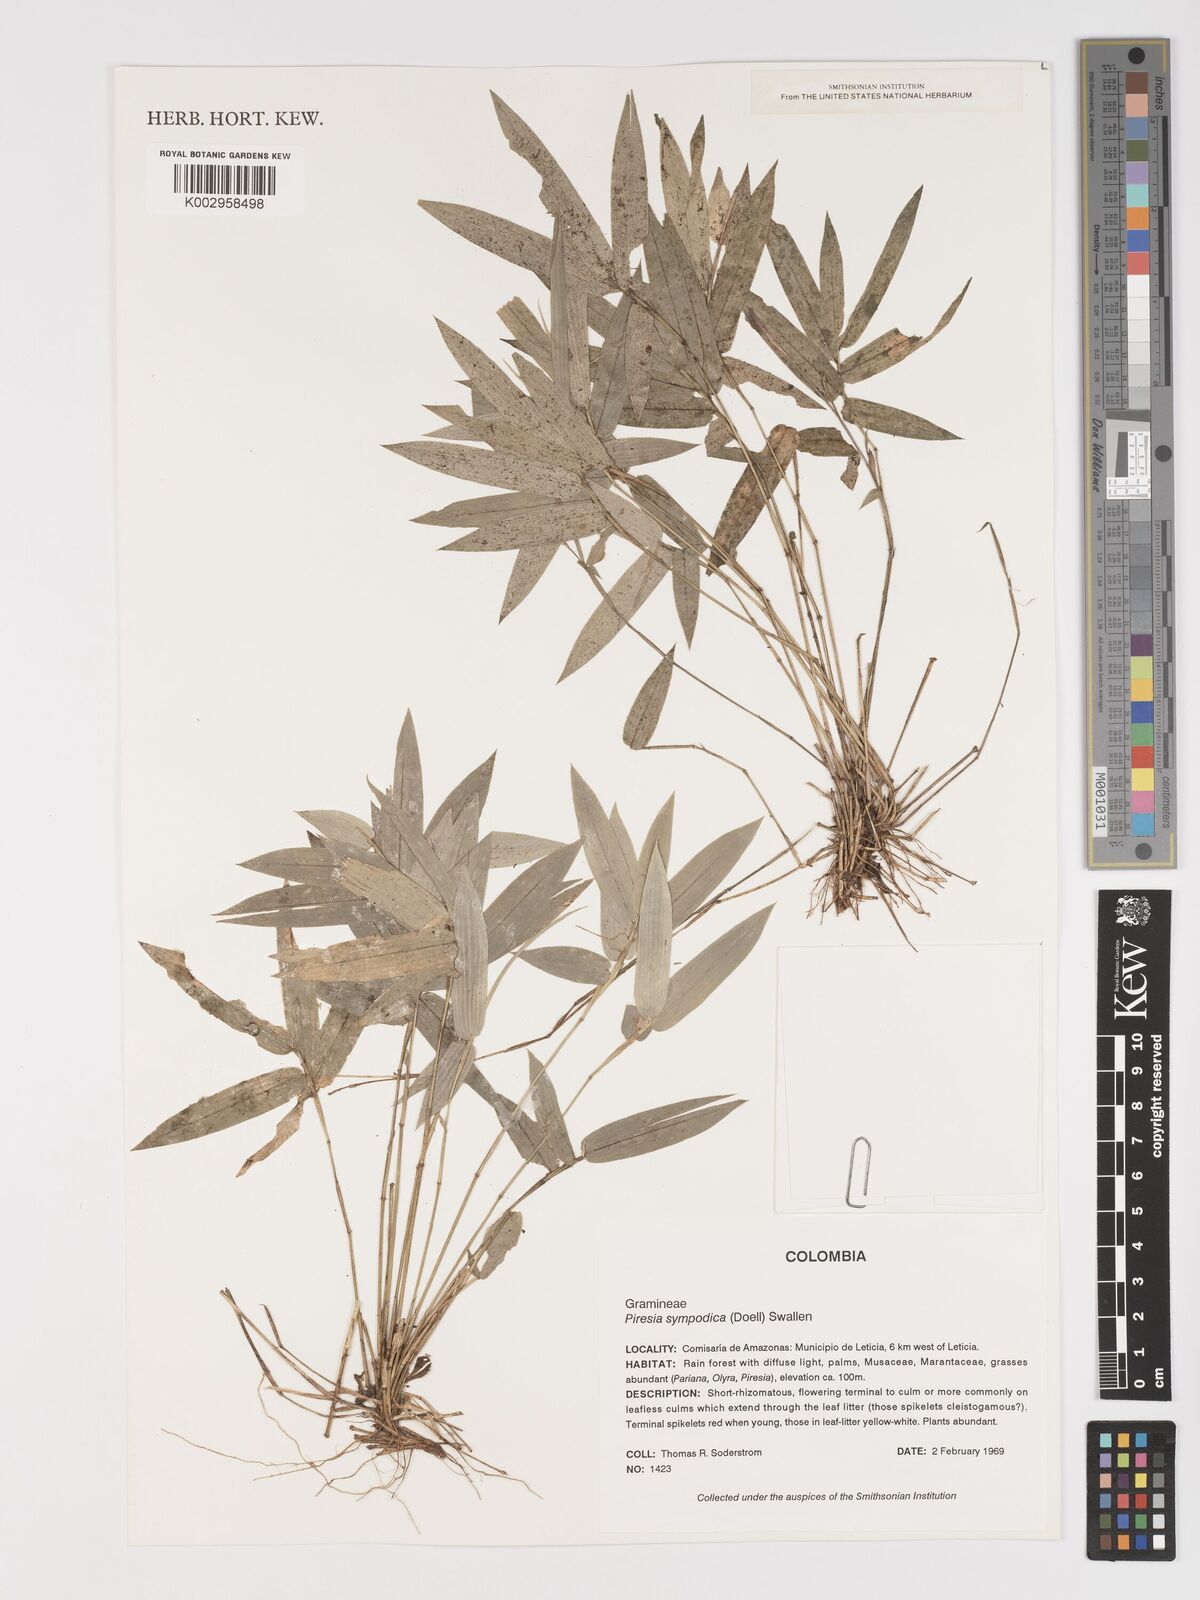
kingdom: Plantae
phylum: Tracheophyta
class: Liliopsida
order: Poales
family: Poaceae
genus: Piresia
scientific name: Piresia sympodica
